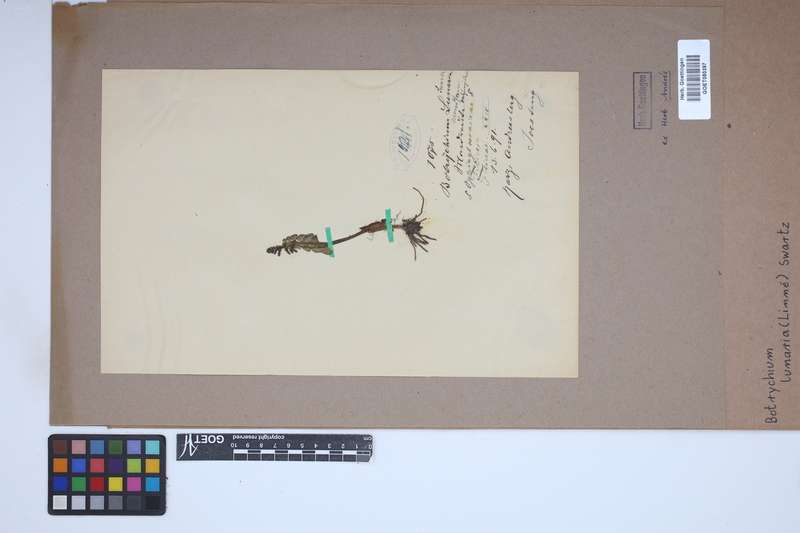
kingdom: Plantae
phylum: Tracheophyta
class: Polypodiopsida
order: Ophioglossales
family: Ophioglossaceae
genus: Botrychium
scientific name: Botrychium lunaria
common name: Moonwort
